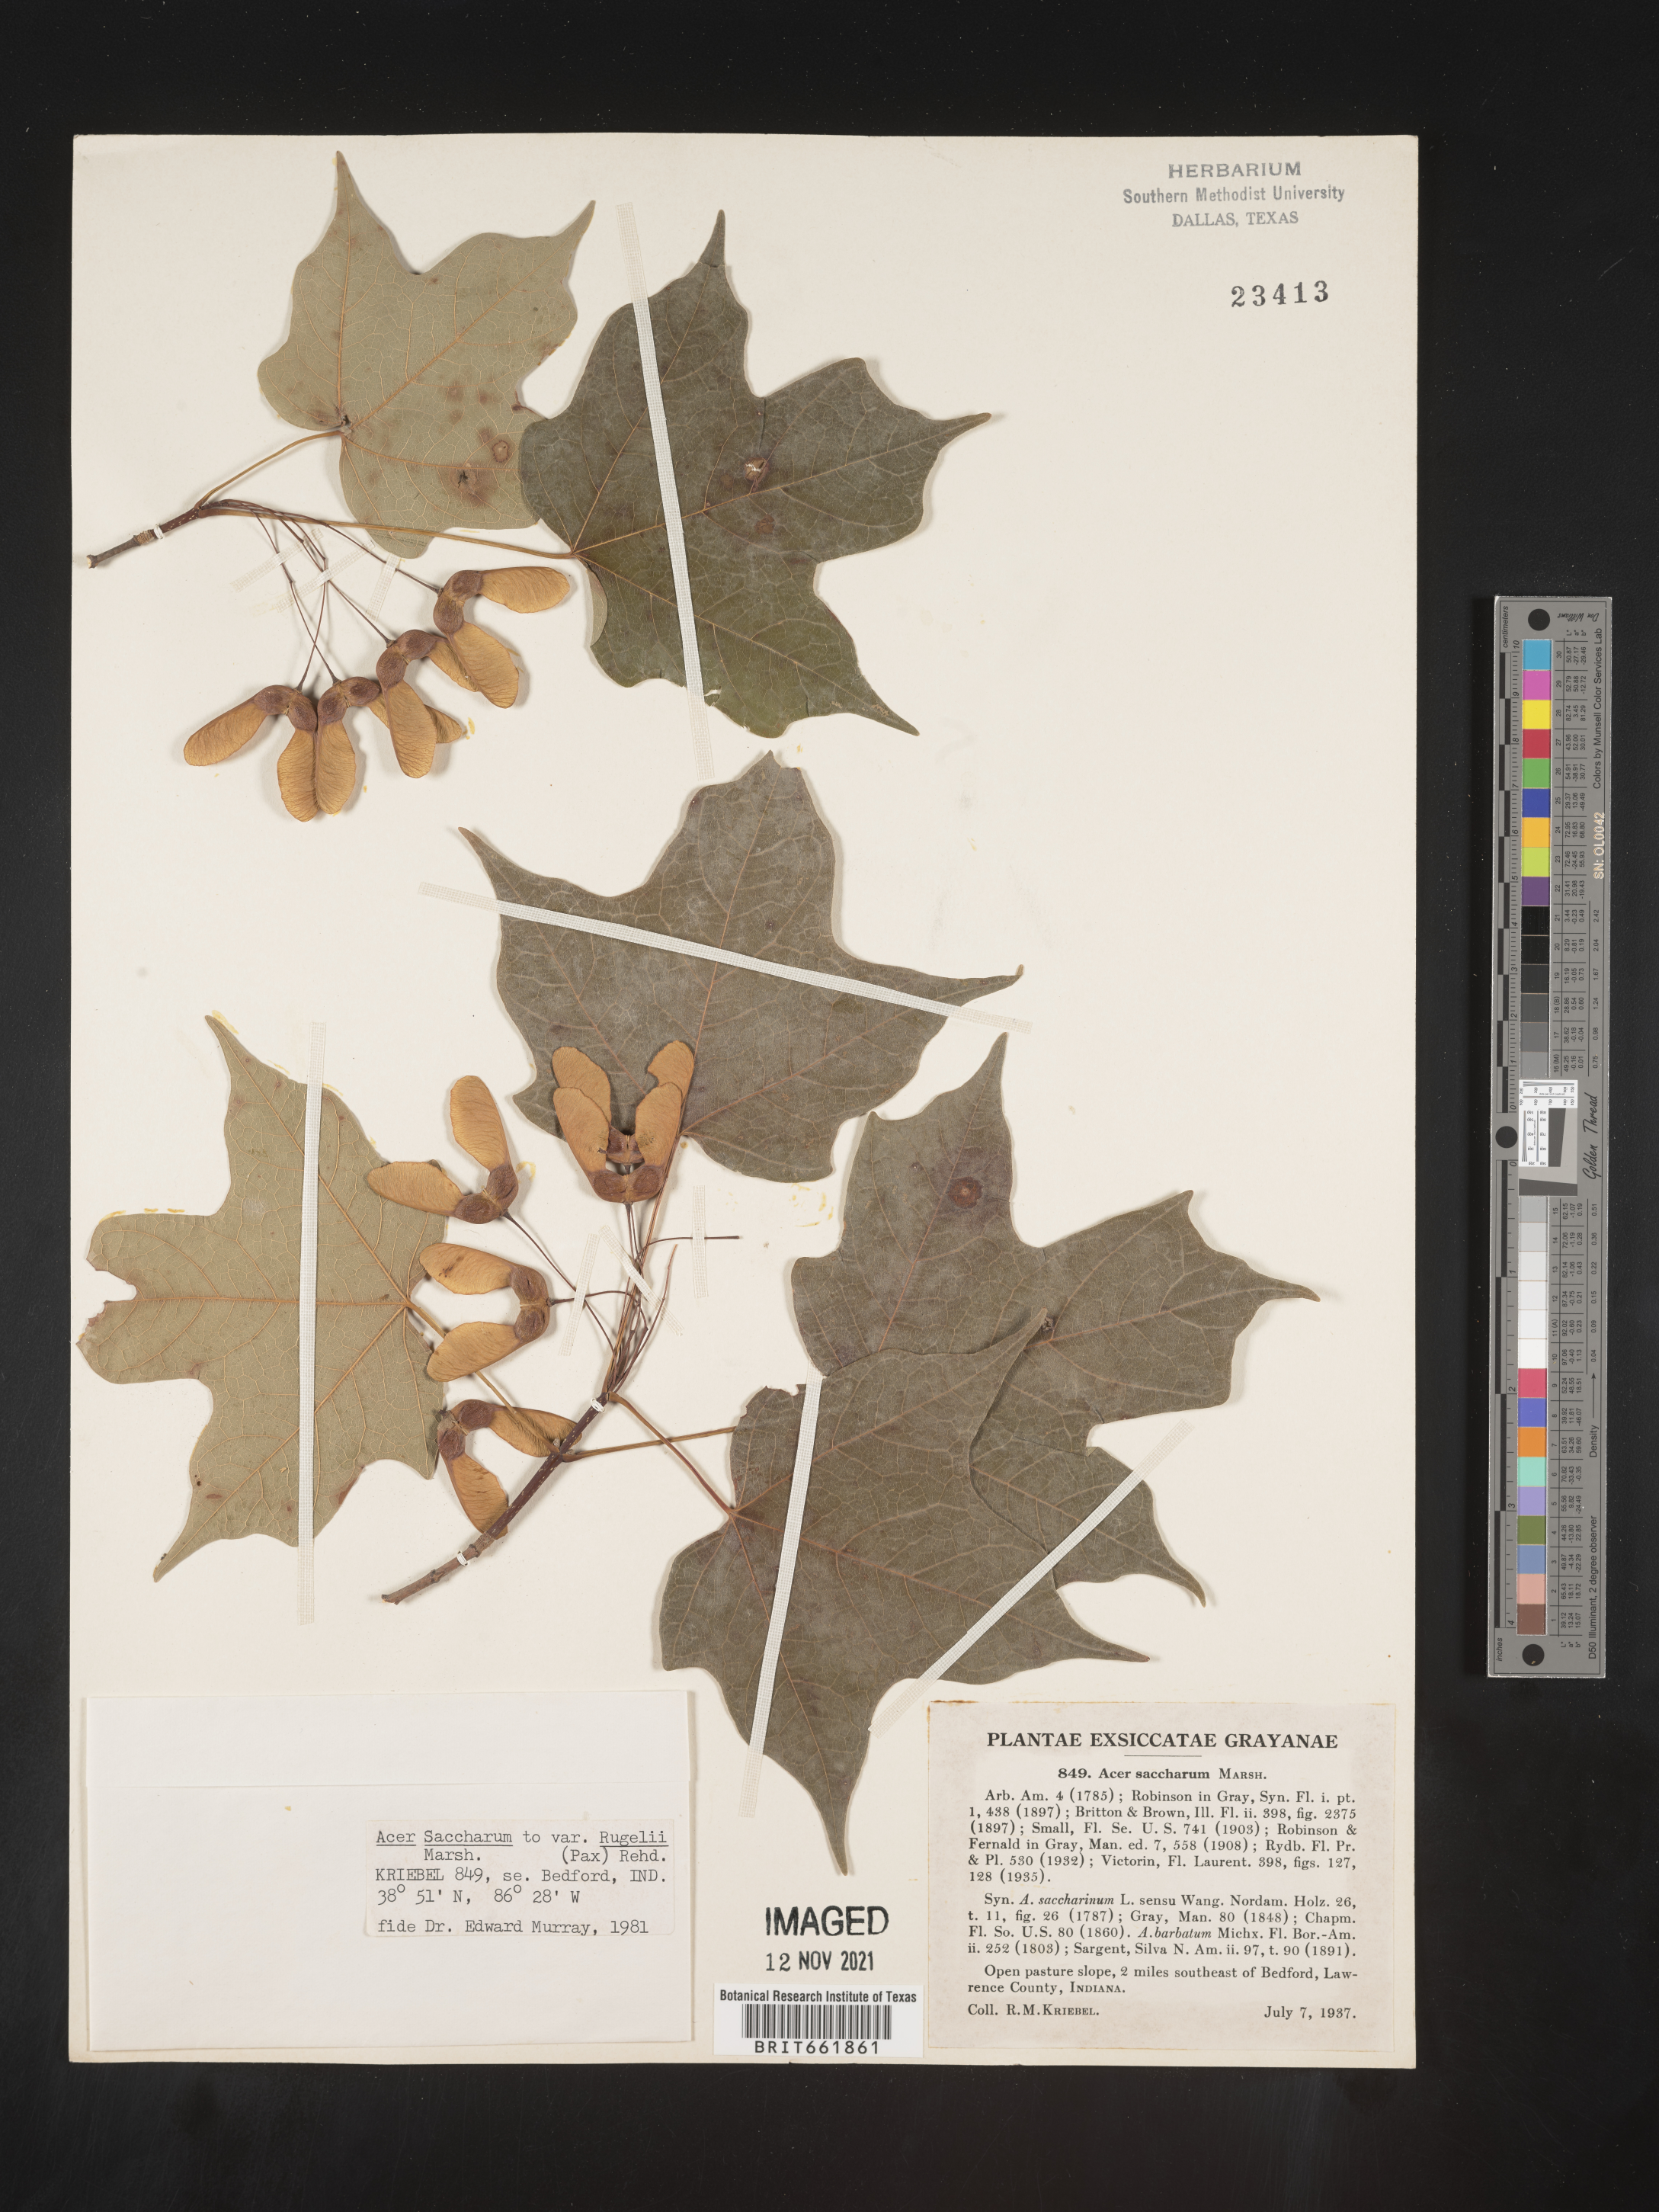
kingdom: Plantae
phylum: Tracheophyta
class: Magnoliopsida
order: Sapindales
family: Sapindaceae
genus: Acer
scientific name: Acer saccharum
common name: Sugar maple
